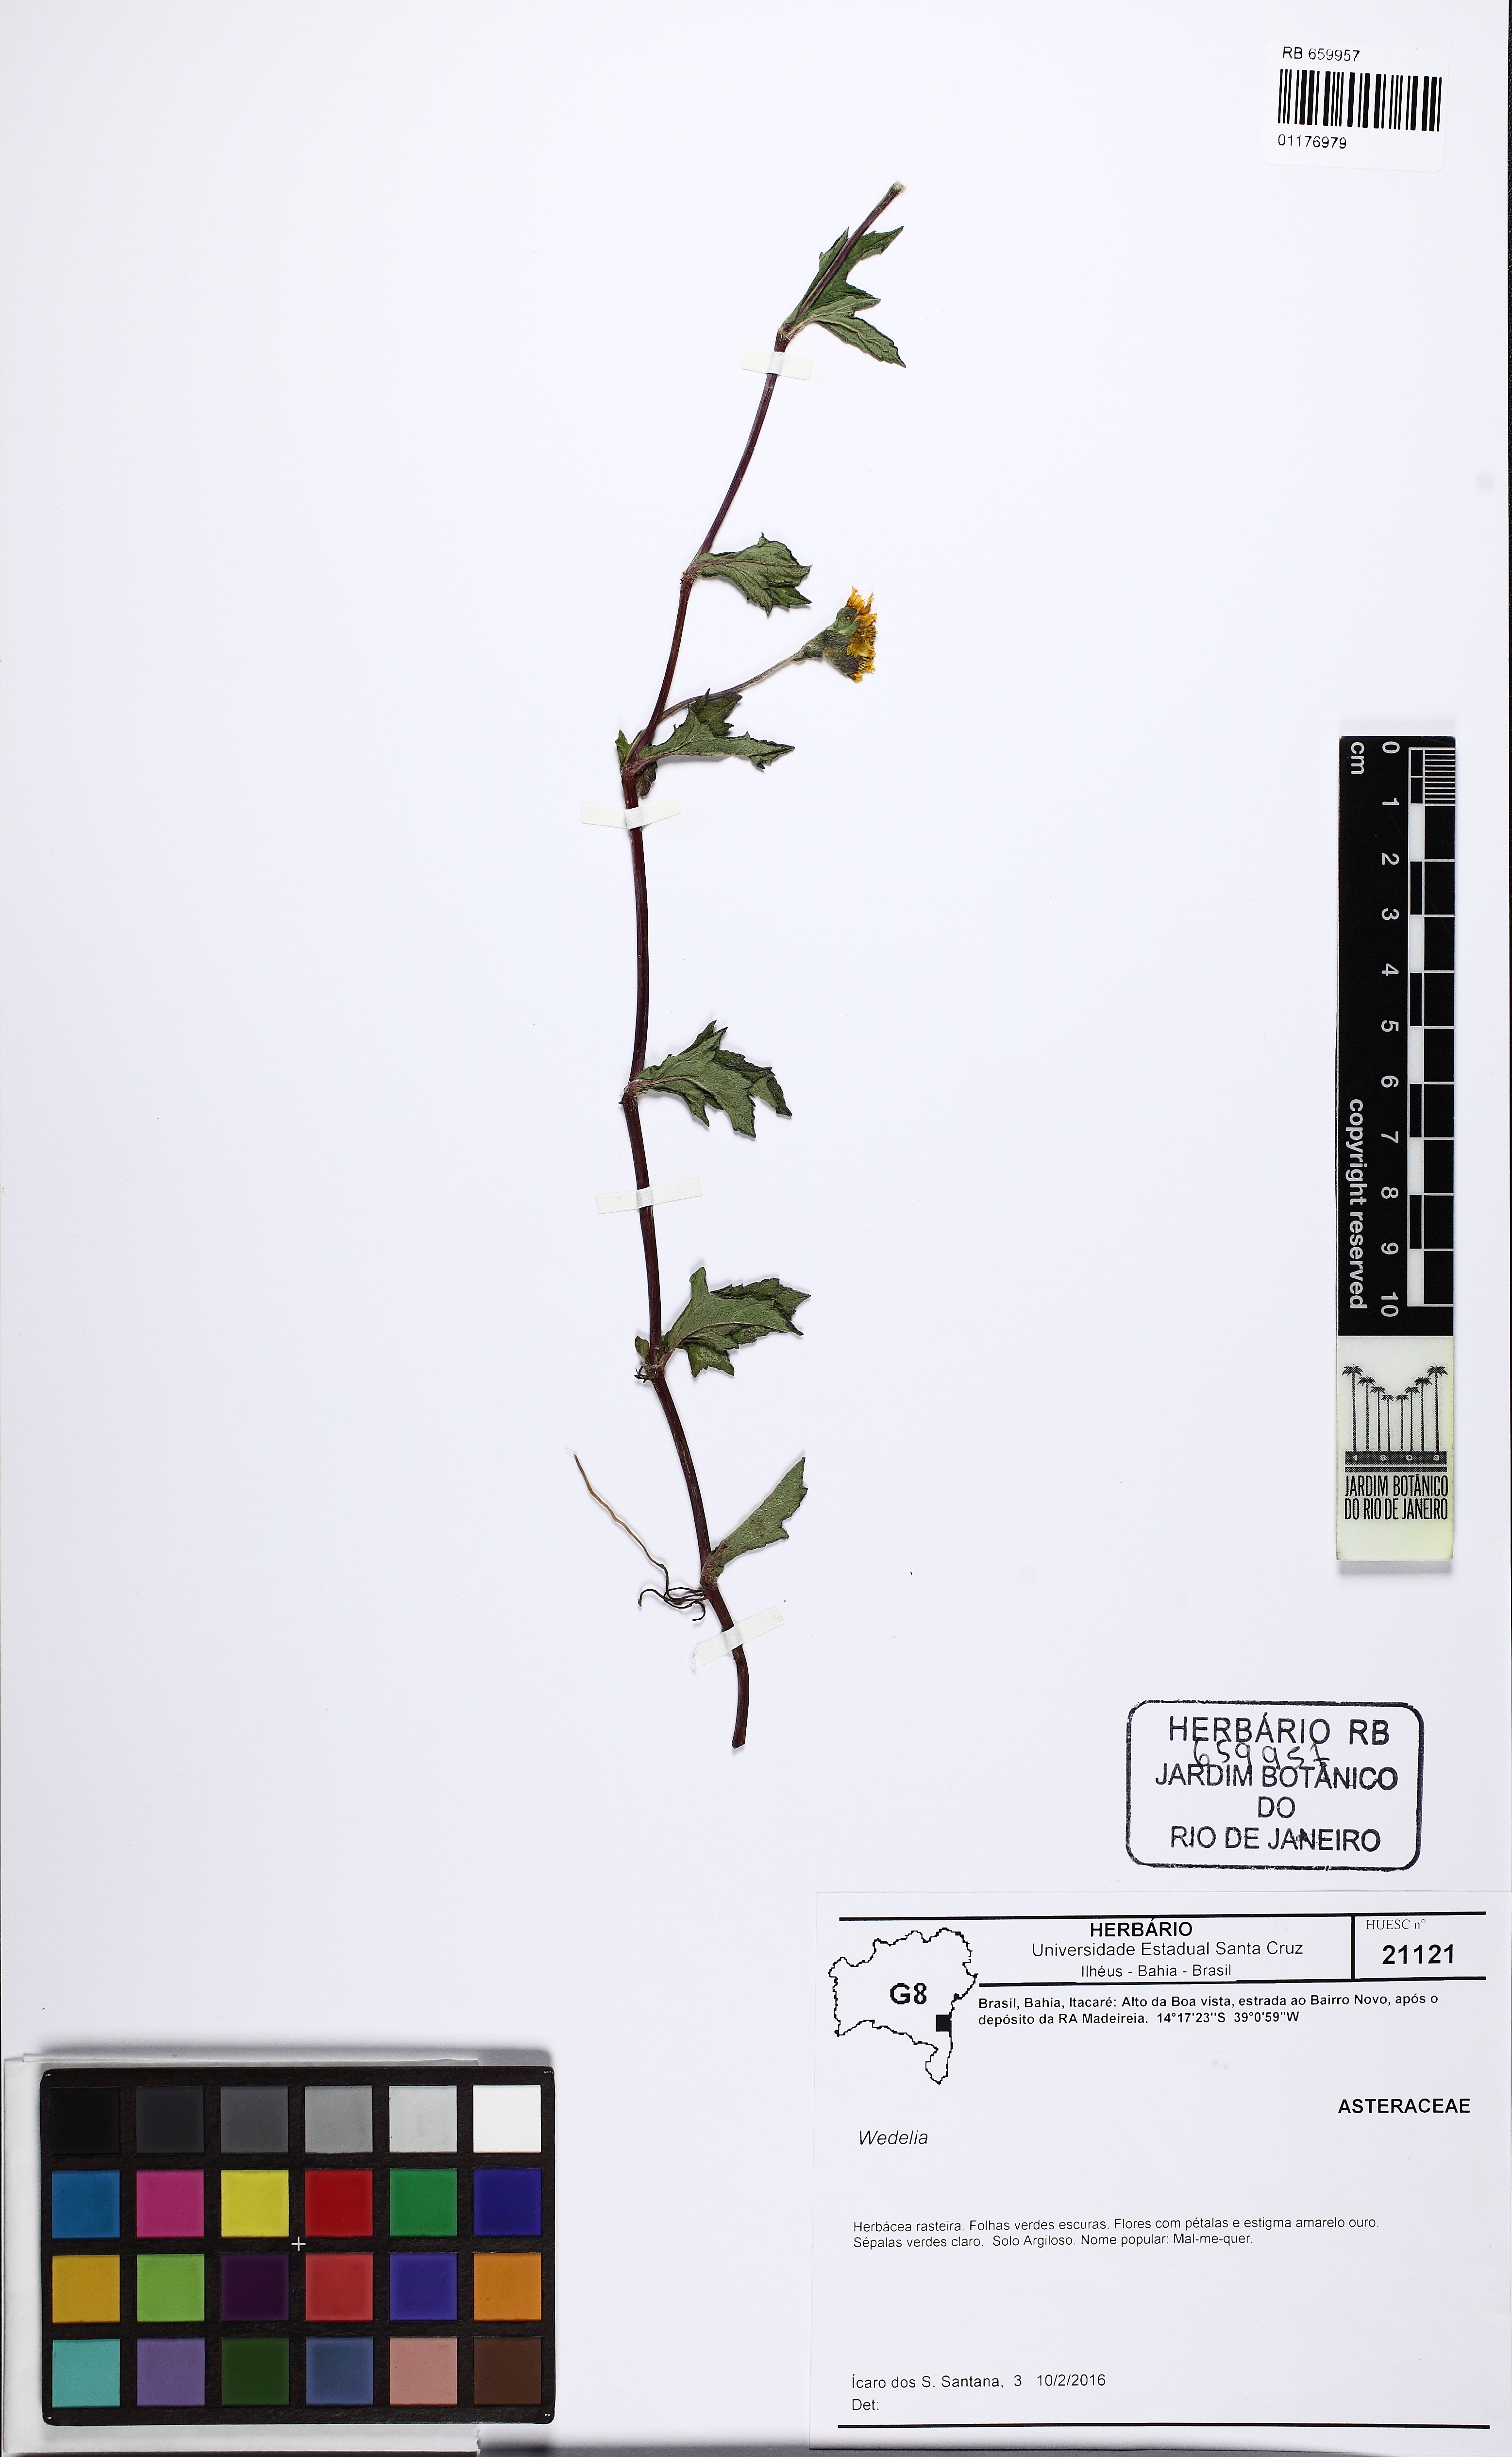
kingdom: Plantae
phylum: Tracheophyta
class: Magnoliopsida
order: Asterales
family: Asteraceae
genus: Sphagneticola
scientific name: Sphagneticola trilobata
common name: Bay biscayne creeping-oxeye
